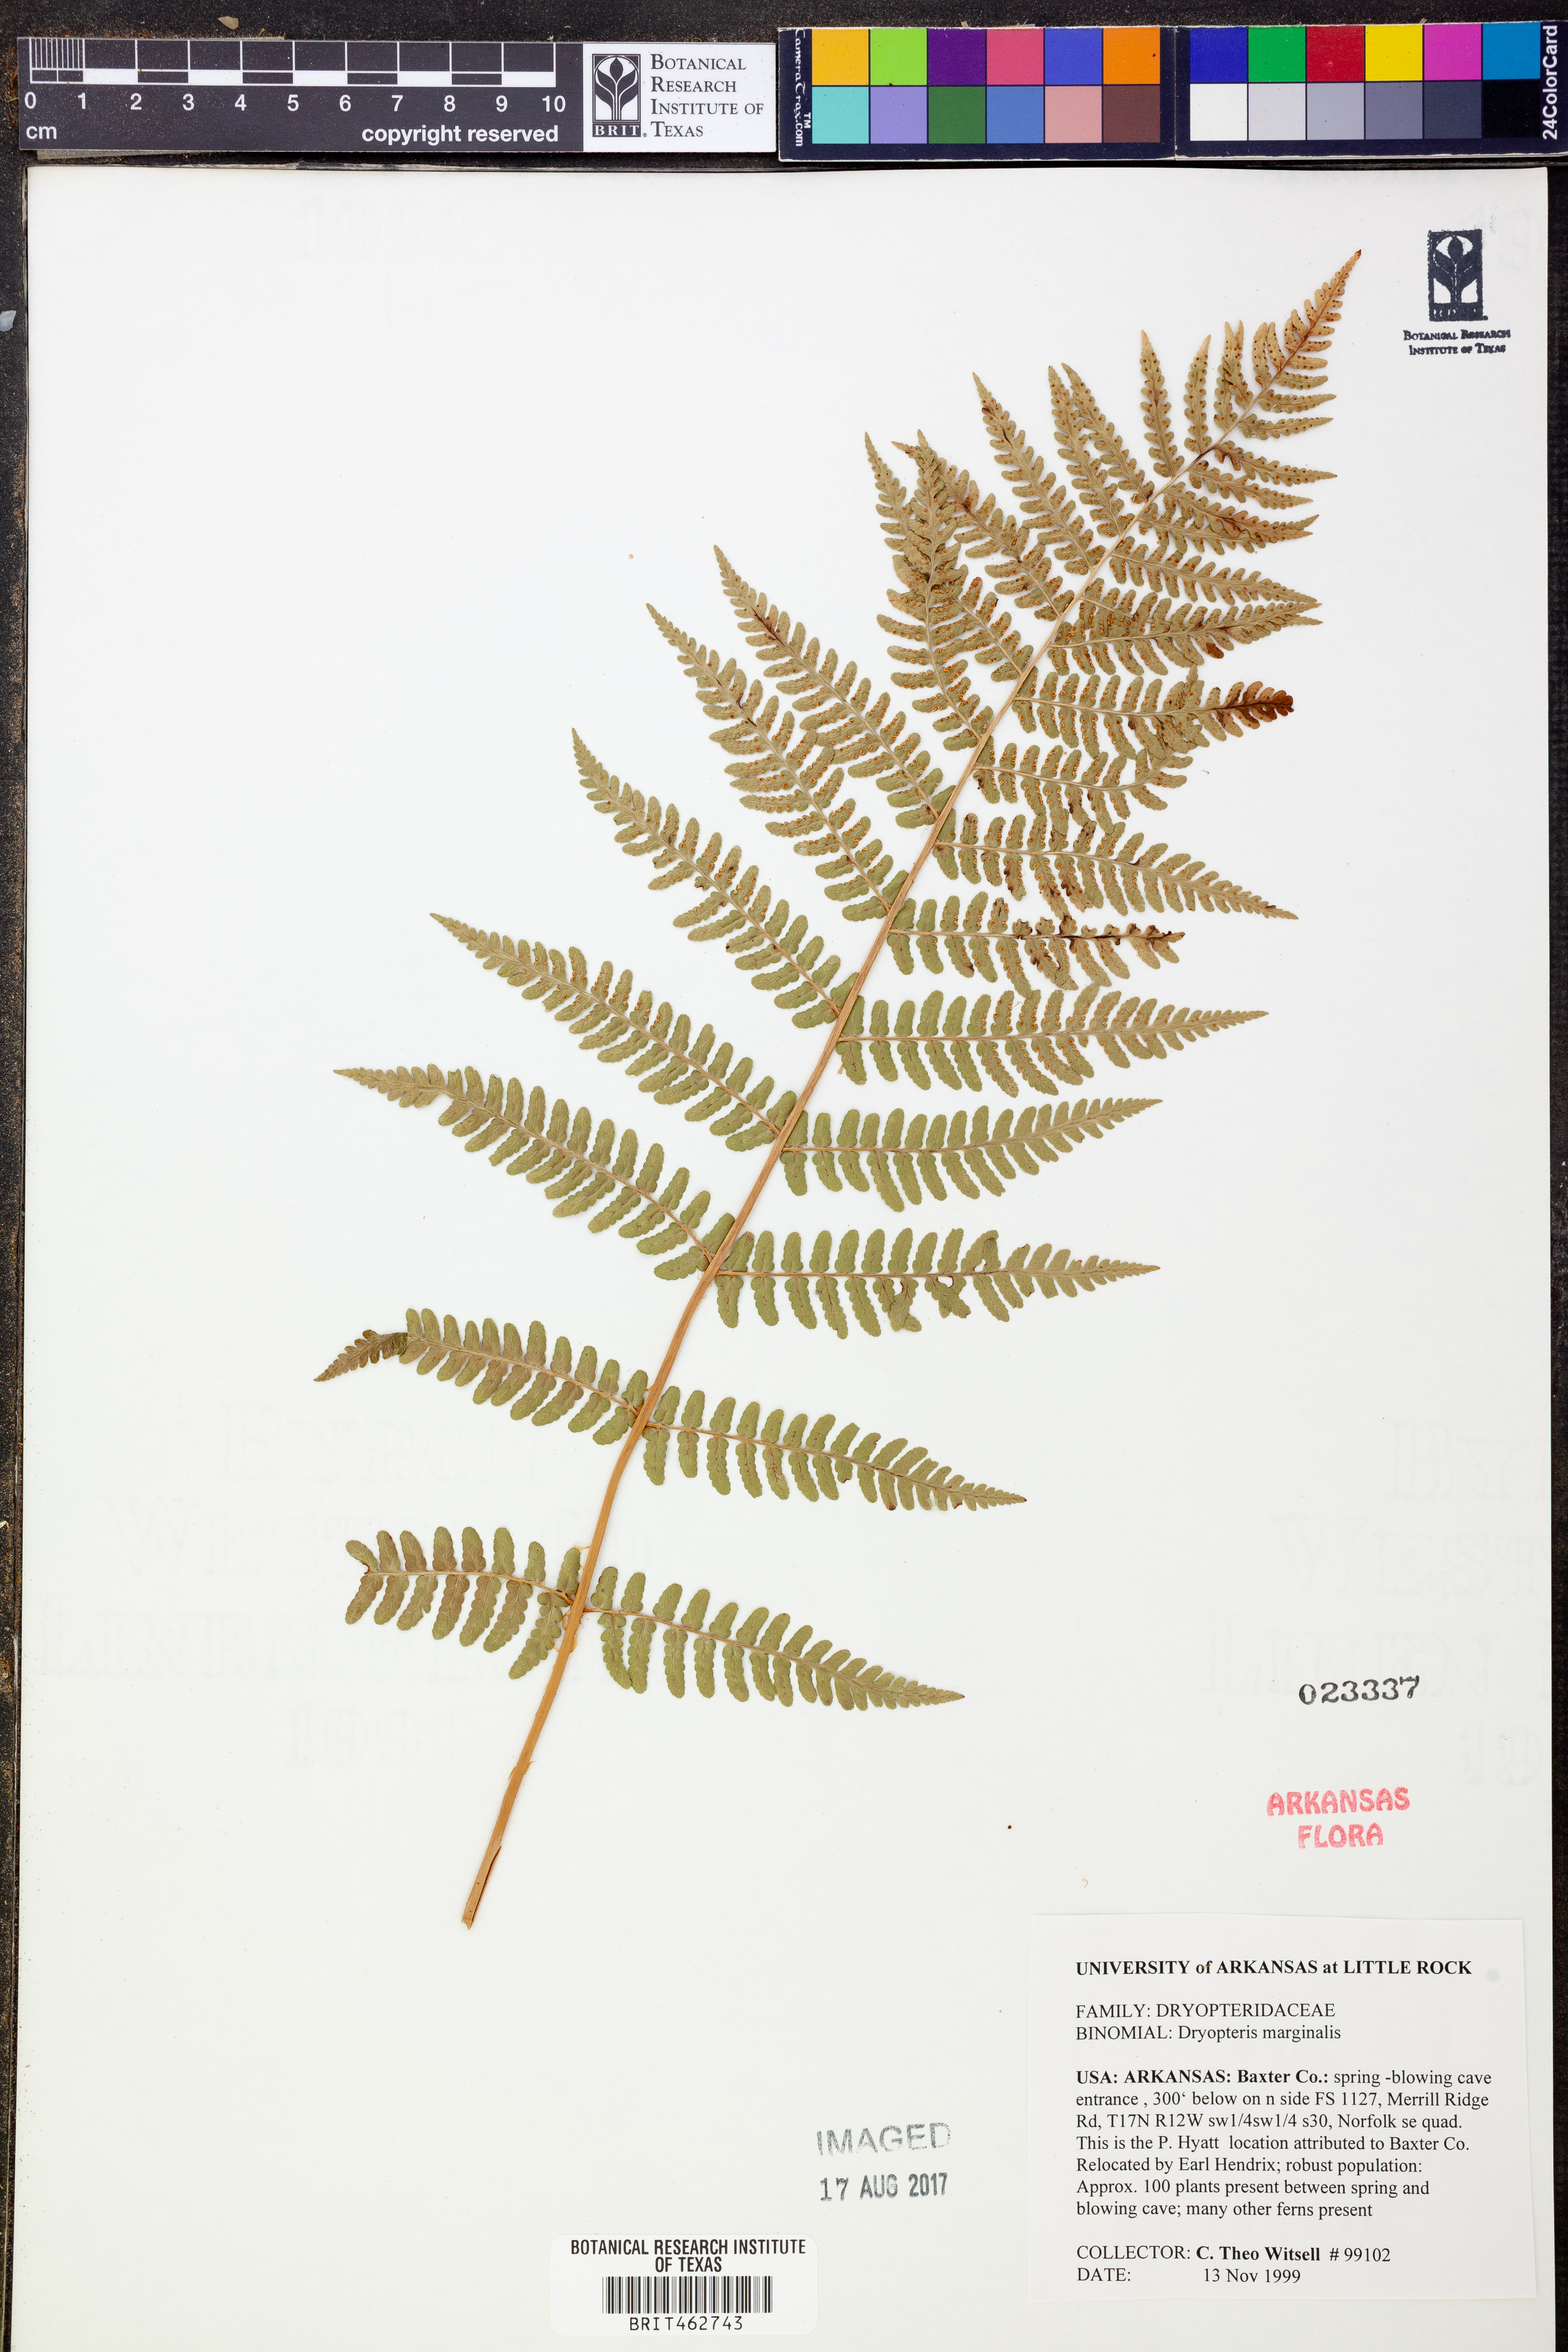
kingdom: Plantae
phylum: Tracheophyta
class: Polypodiopsida
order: Polypodiales
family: Dryopteridaceae
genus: Dryopteris
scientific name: Dryopteris marginalis
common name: Marginal wood fern
